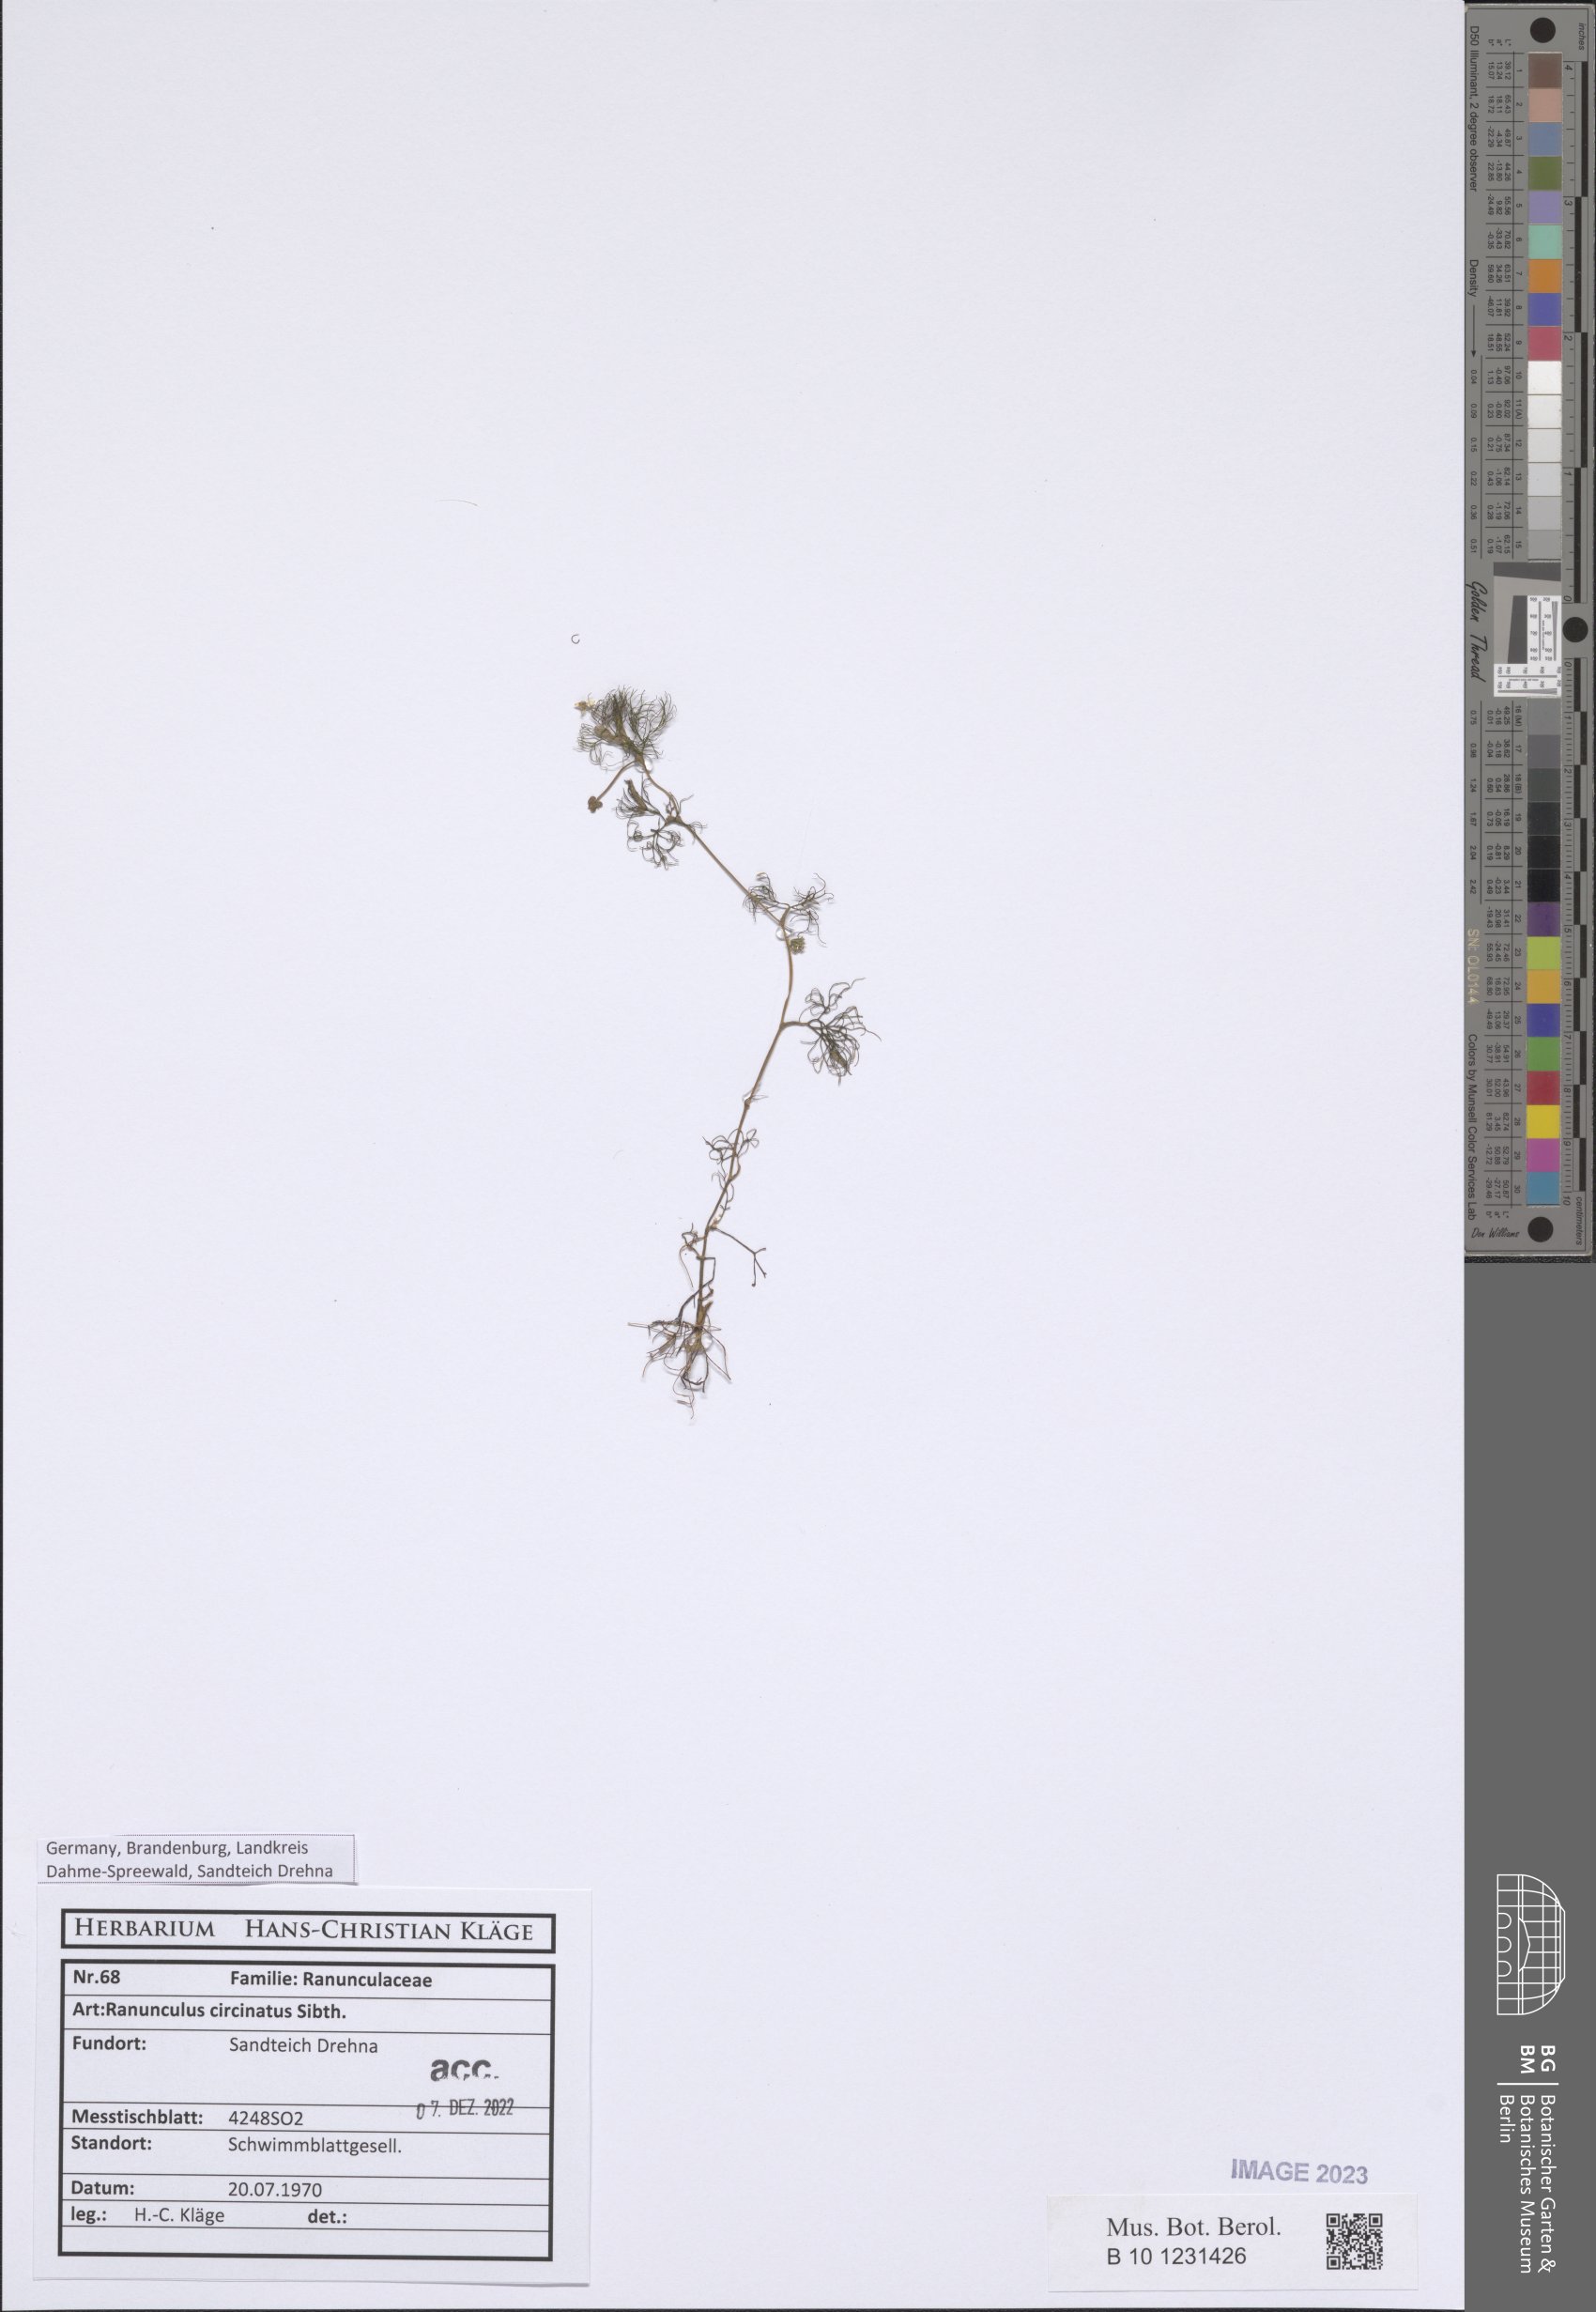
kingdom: Plantae
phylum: Tracheophyta
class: Magnoliopsida
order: Ranunculales
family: Ranunculaceae
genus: Ranunculus
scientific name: Ranunculus circinatus
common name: Fan-leaved water-crowfoot
